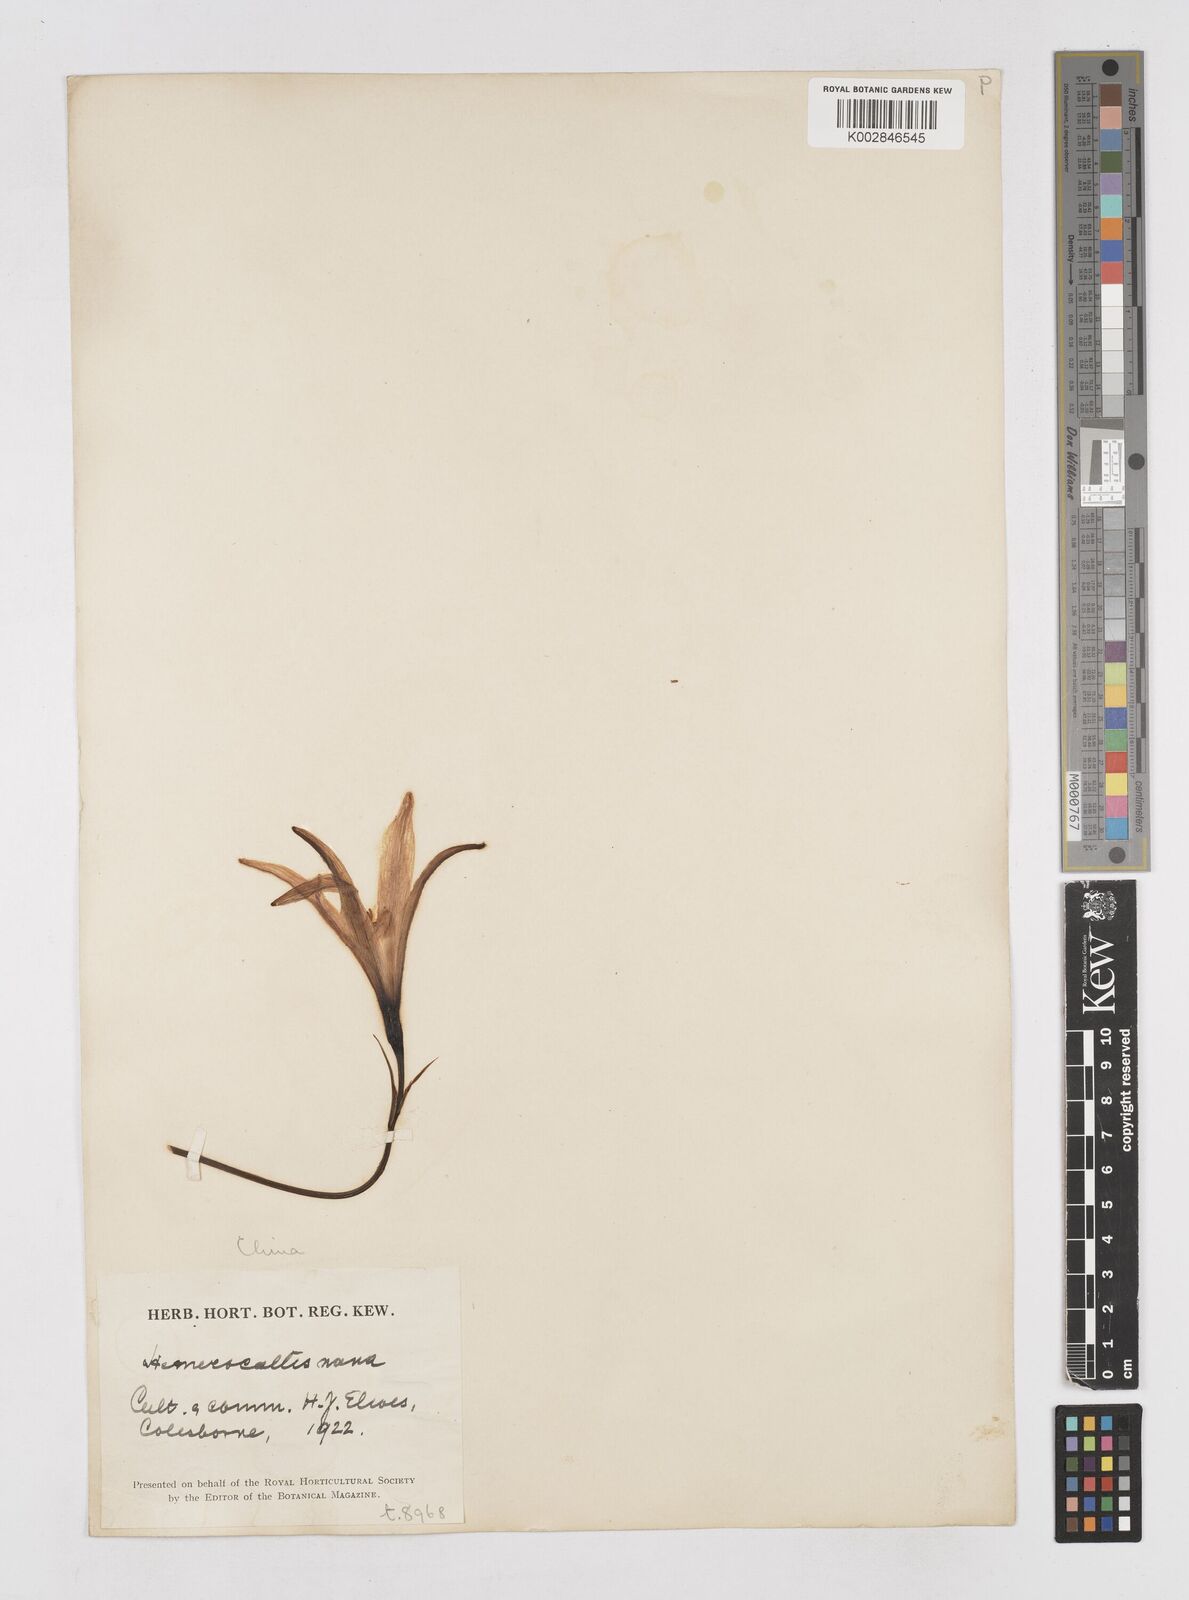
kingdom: Plantae
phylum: Tracheophyta
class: Liliopsida
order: Asparagales
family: Asphodelaceae
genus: Hemerocallis
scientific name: Hemerocallis nana
